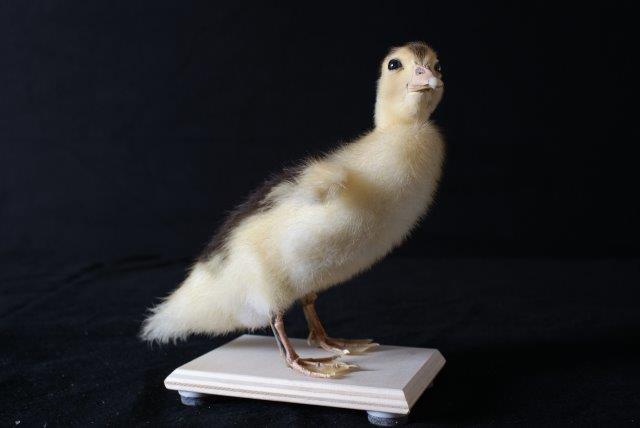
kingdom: Animalia
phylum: Chordata
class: Aves
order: Anseriformes
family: Anatidae
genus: Cairina
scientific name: Cairina moschata
